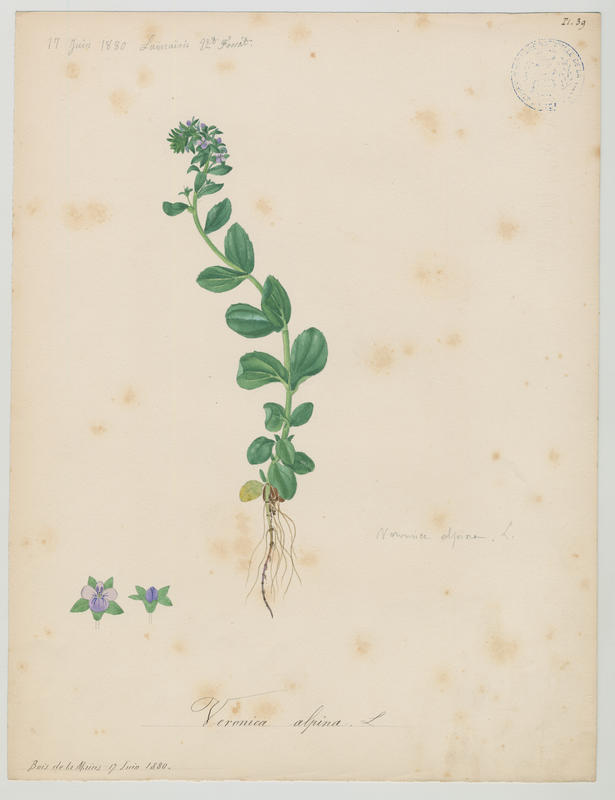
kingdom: Plantae
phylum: Tracheophyta
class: Magnoliopsida
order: Lamiales
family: Plantaginaceae
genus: Veronica
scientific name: Veronica alpina
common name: Alpine speedwell
